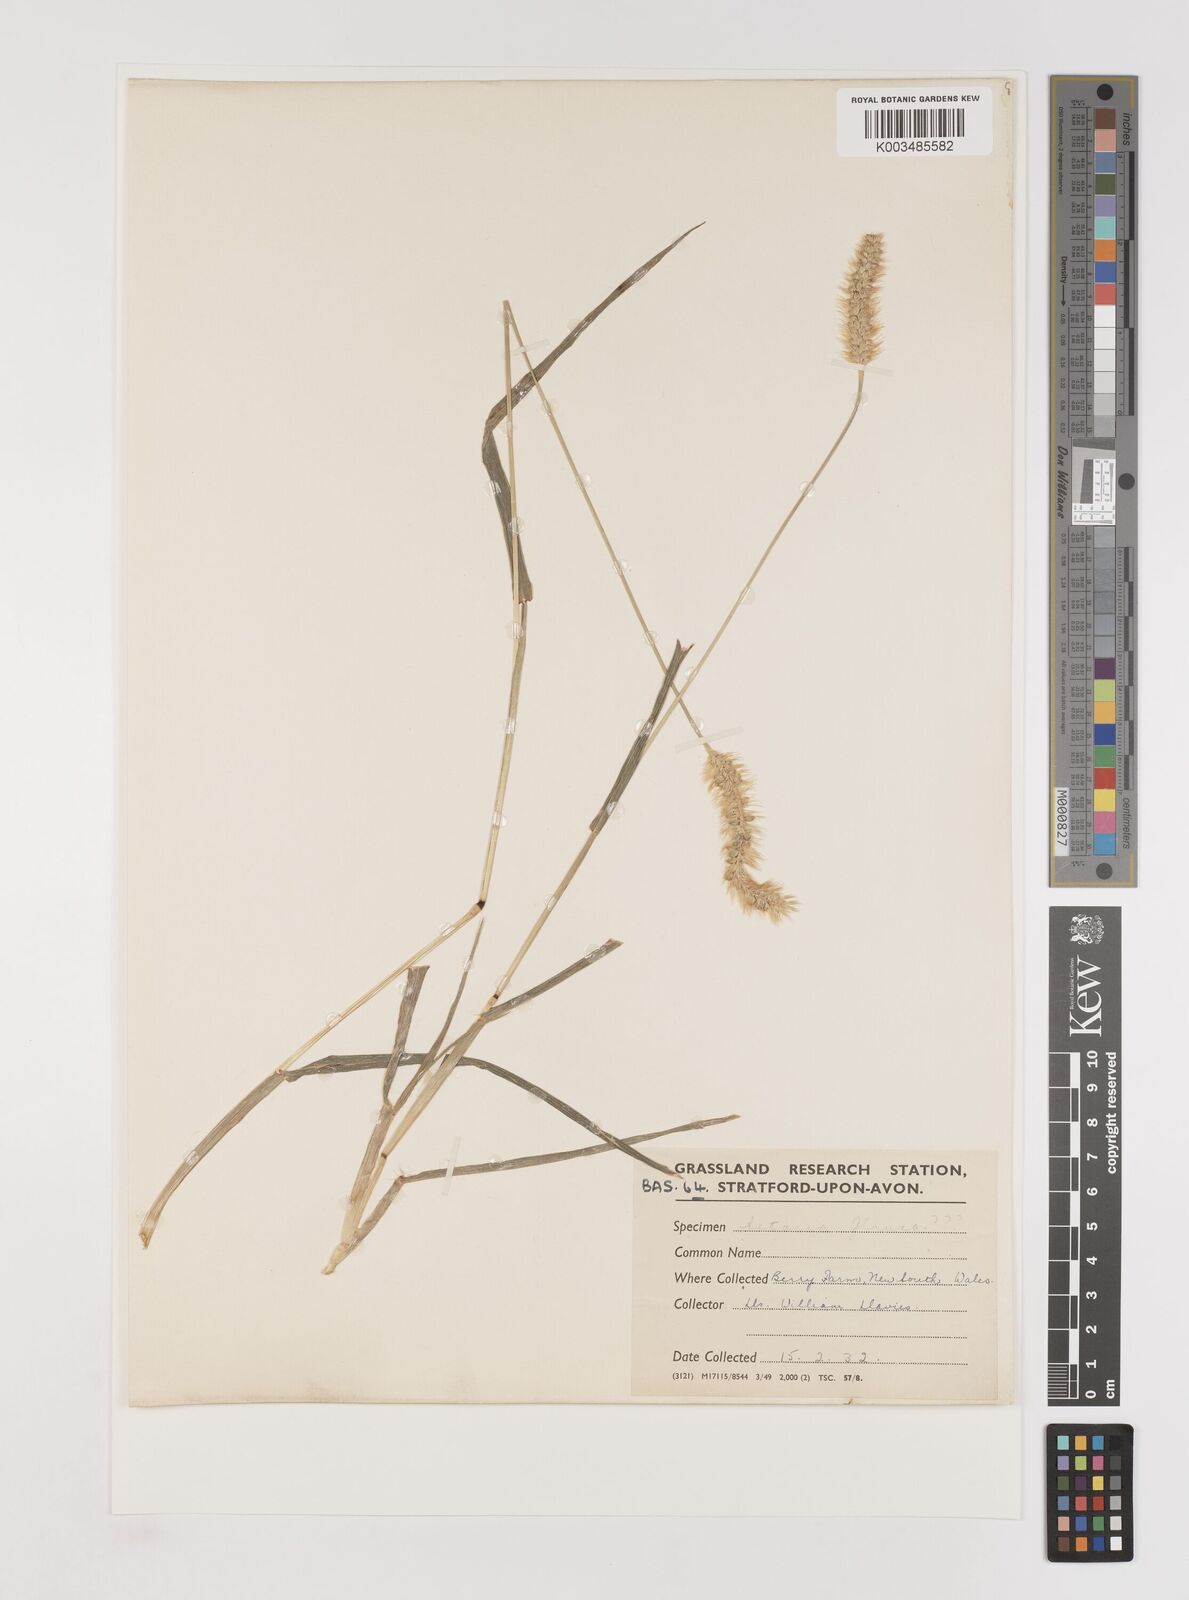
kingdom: Plantae
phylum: Tracheophyta
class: Liliopsida
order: Poales
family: Poaceae
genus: Setaria
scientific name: Setaria
